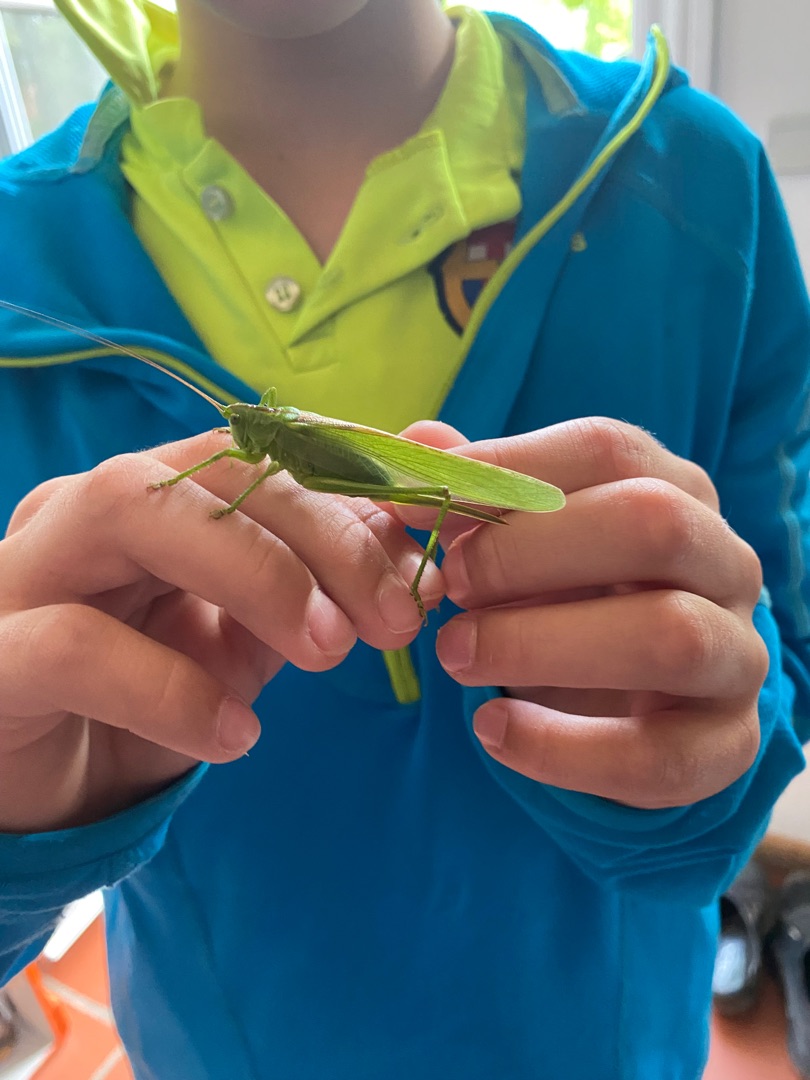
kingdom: Animalia
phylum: Arthropoda
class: Insecta
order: Orthoptera
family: Tettigoniidae
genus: Tettigonia
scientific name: Tettigonia viridissima
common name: Stor grøn løvgræshoppe
